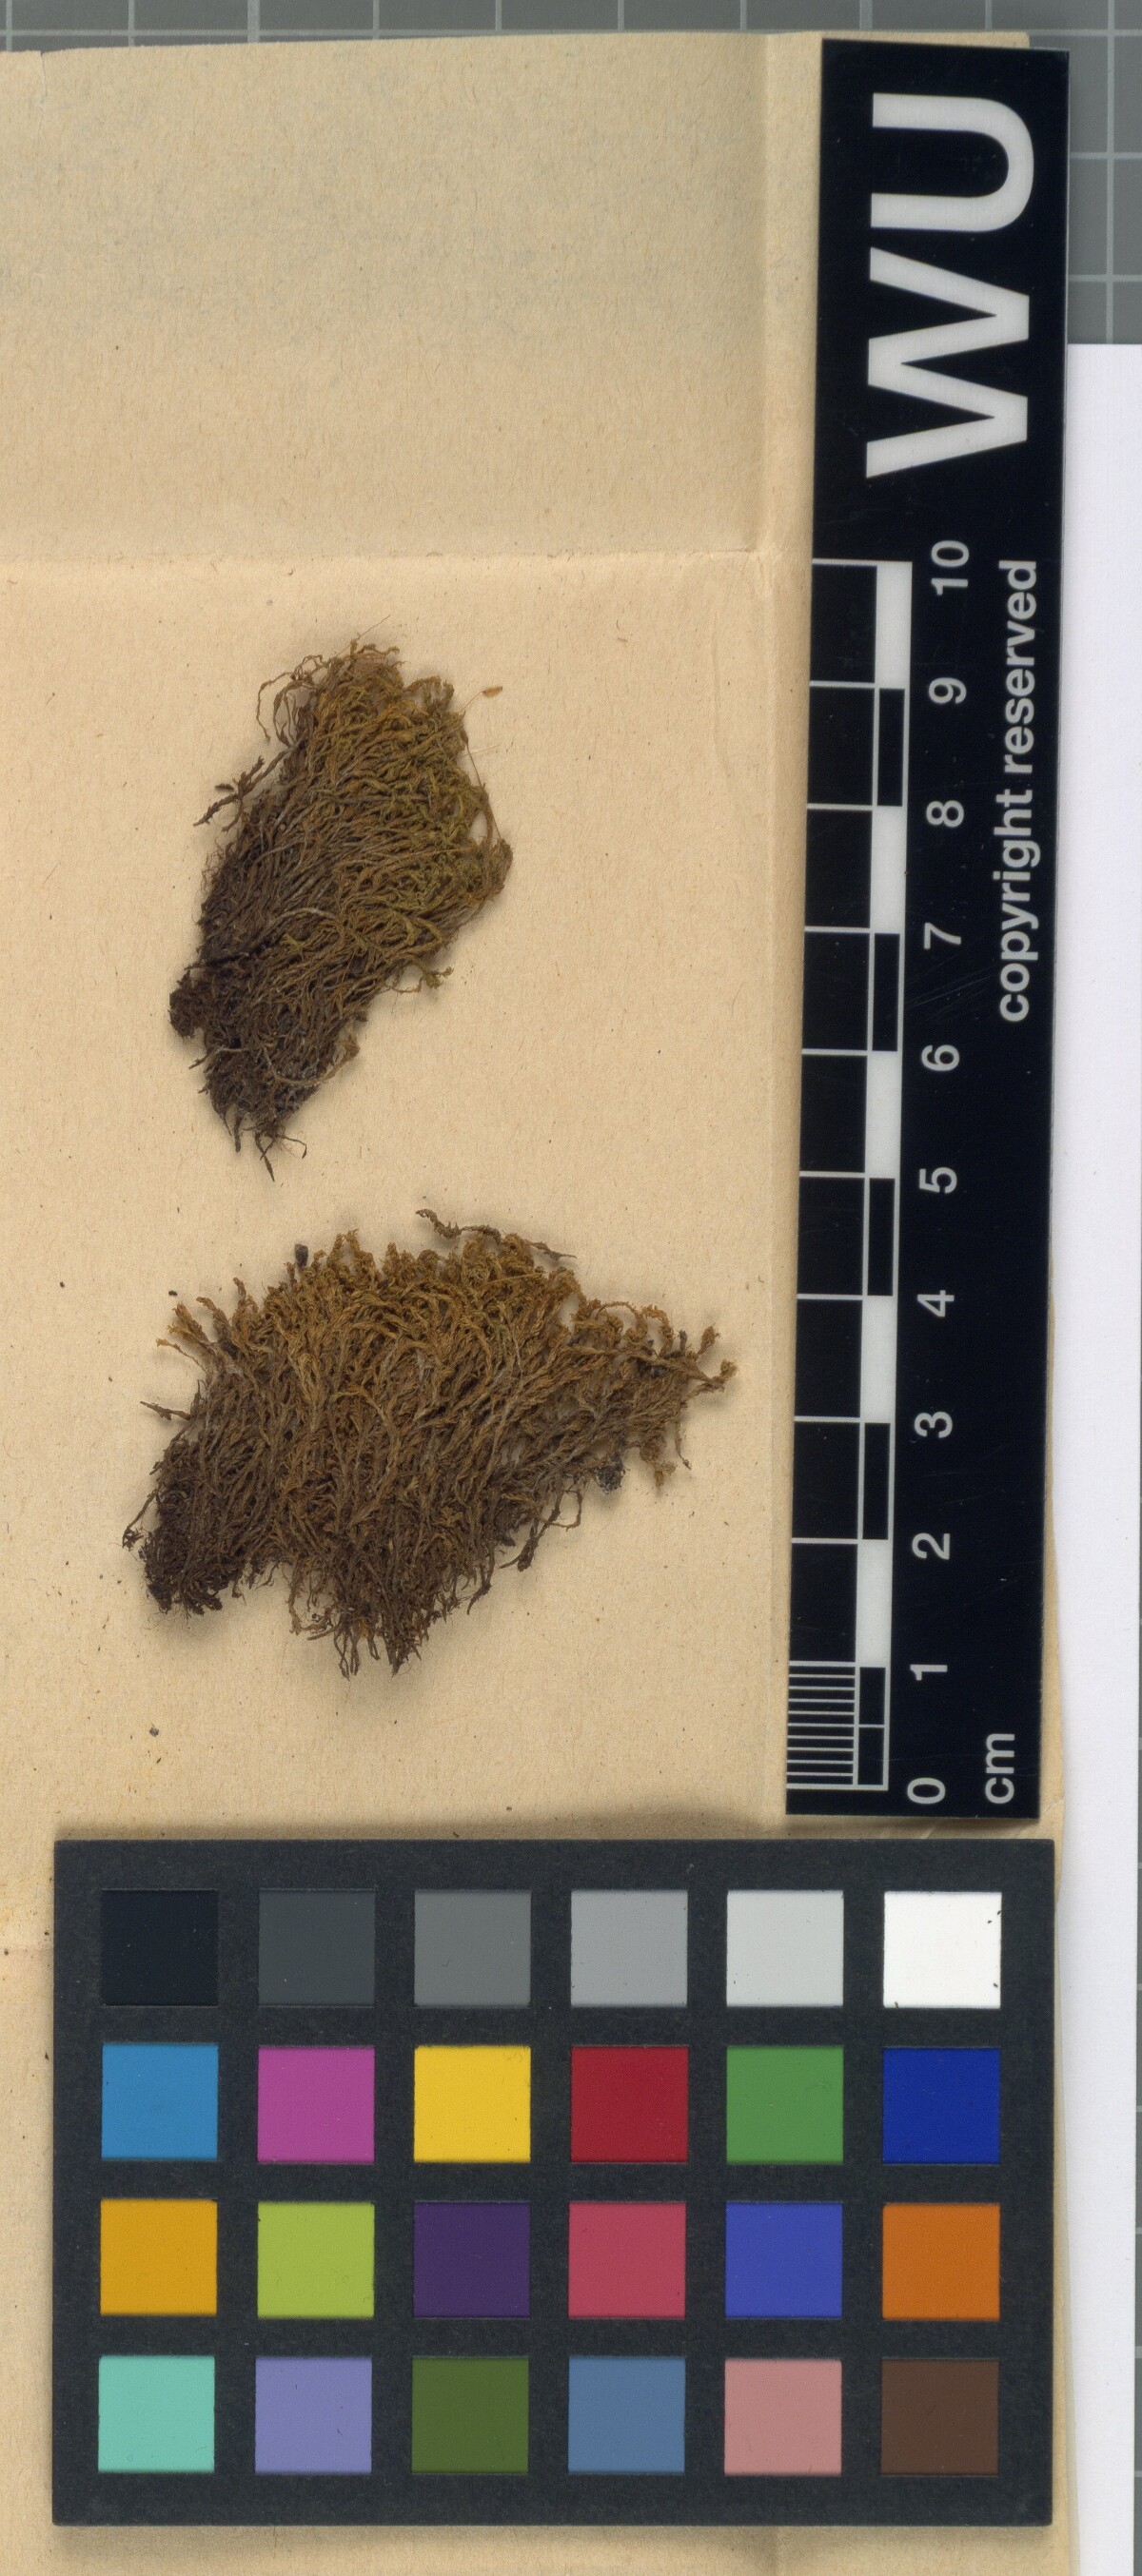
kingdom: Plantae
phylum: Bryophyta
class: Bryopsida
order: Pottiales
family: Pottiaceae
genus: Leptodontium
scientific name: Leptodontium flexifolium
